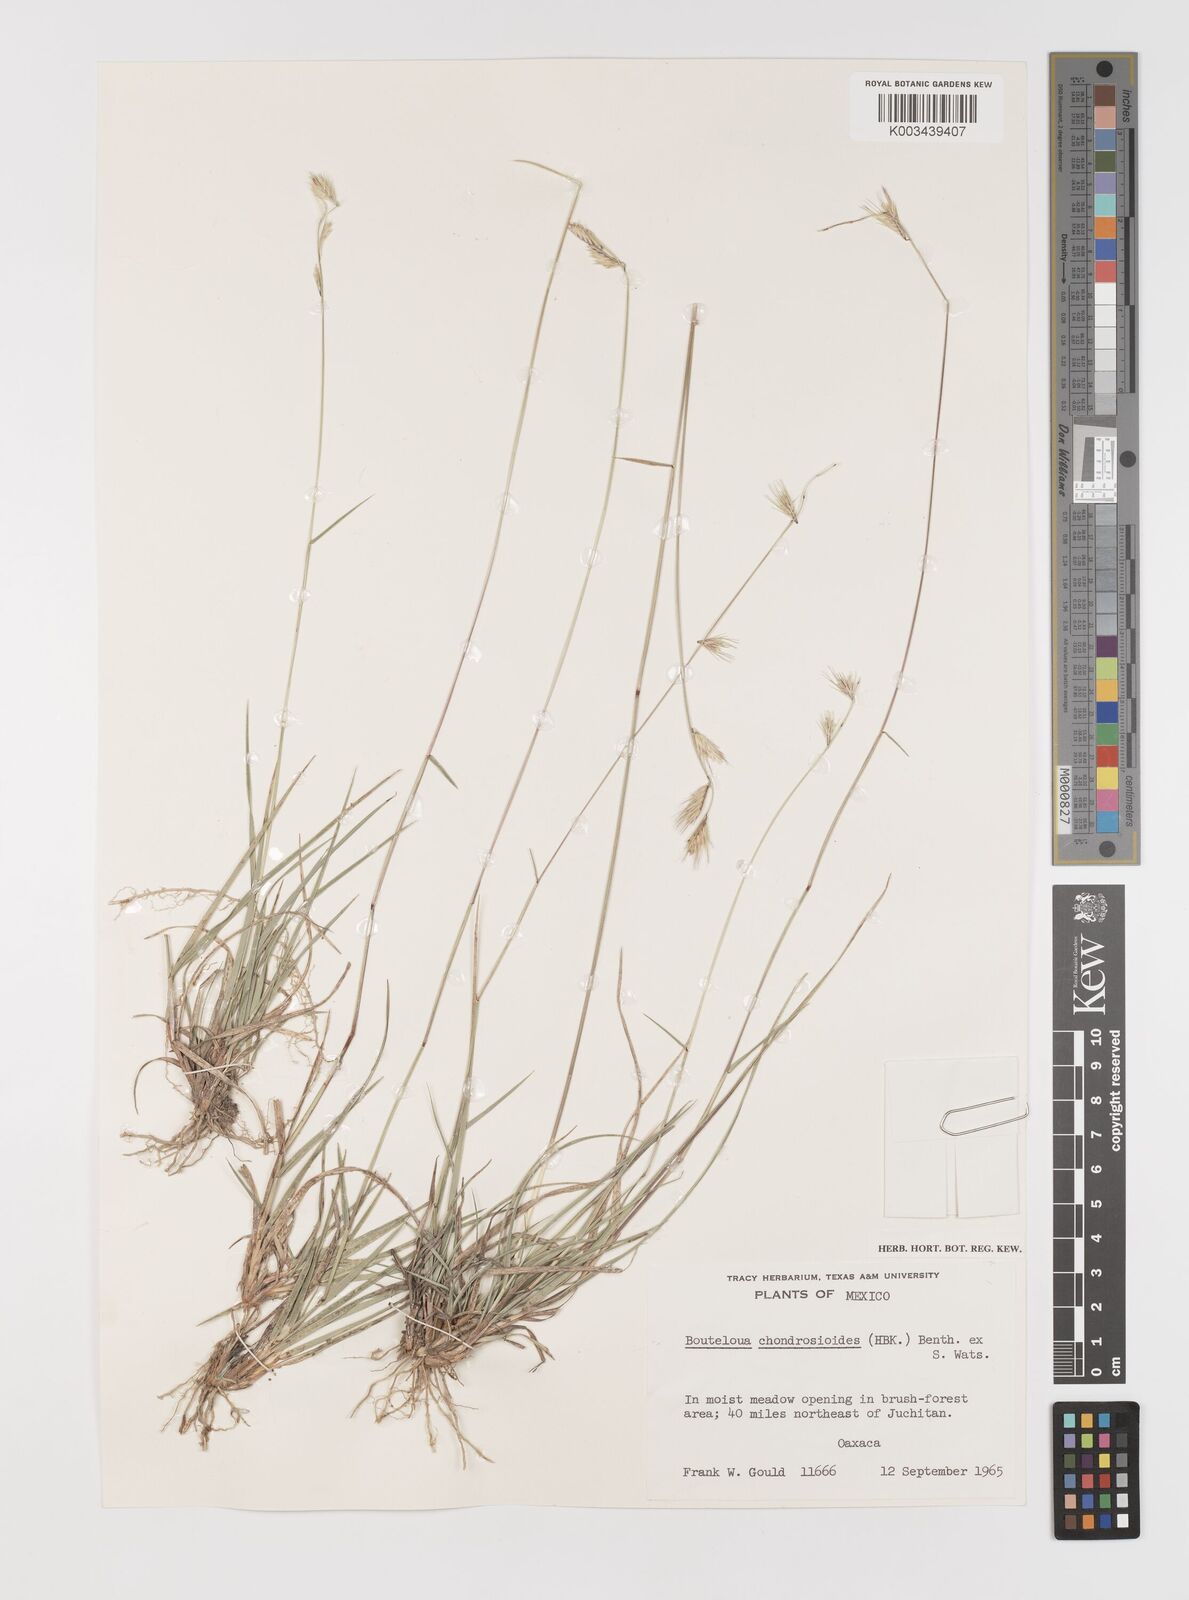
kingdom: Plantae
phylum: Tracheophyta
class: Liliopsida
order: Poales
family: Poaceae
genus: Bouteloua
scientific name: Bouteloua chondrosioides
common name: Sprucetop grama
